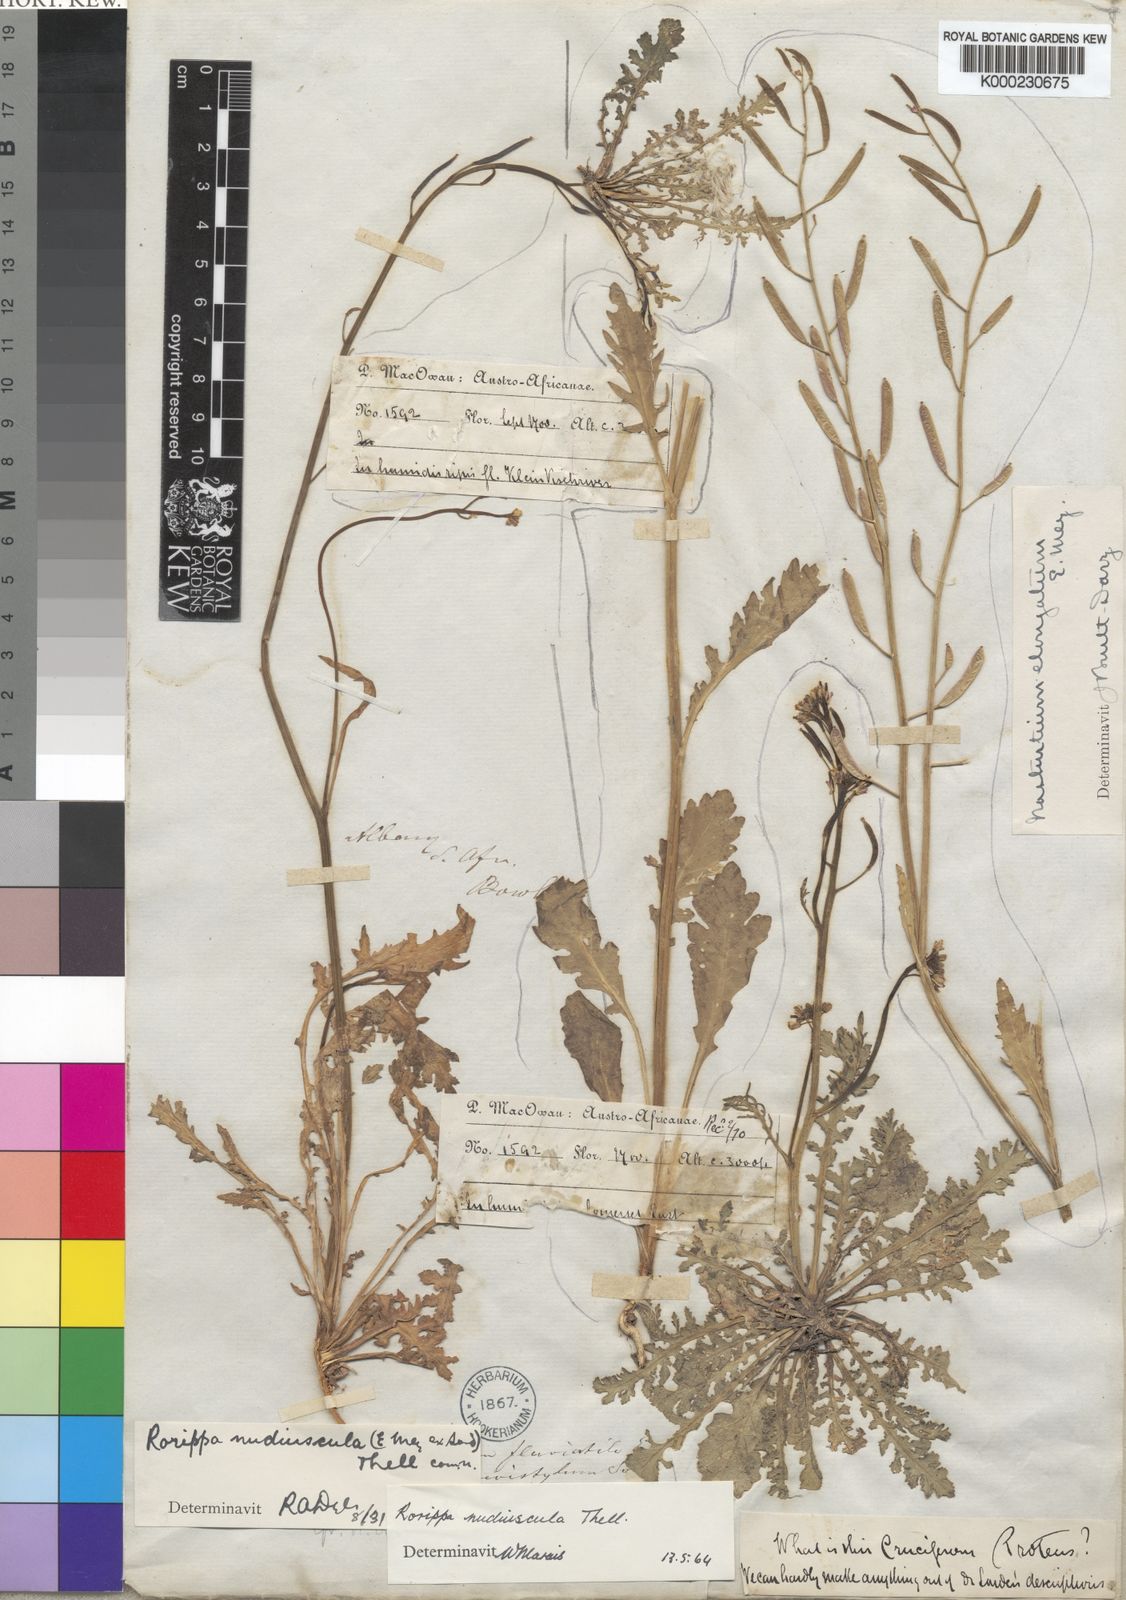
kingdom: Plantae
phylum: Tracheophyta
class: Magnoliopsida
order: Brassicales
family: Brassicaceae
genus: Rorippa
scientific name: Rorippa
